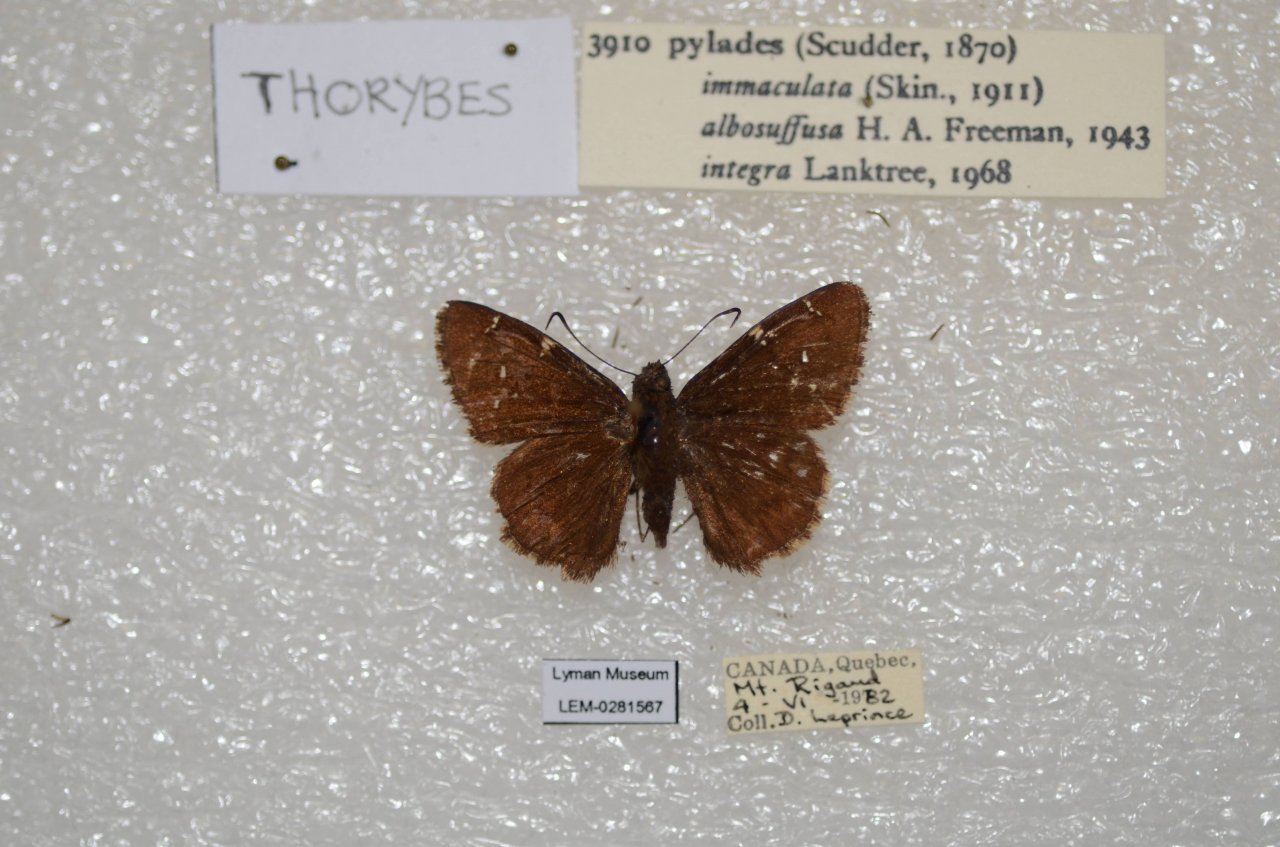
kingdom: Animalia
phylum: Arthropoda
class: Insecta
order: Lepidoptera
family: Hesperiidae
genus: Autochton
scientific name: Autochton
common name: Northern Cloudywing
